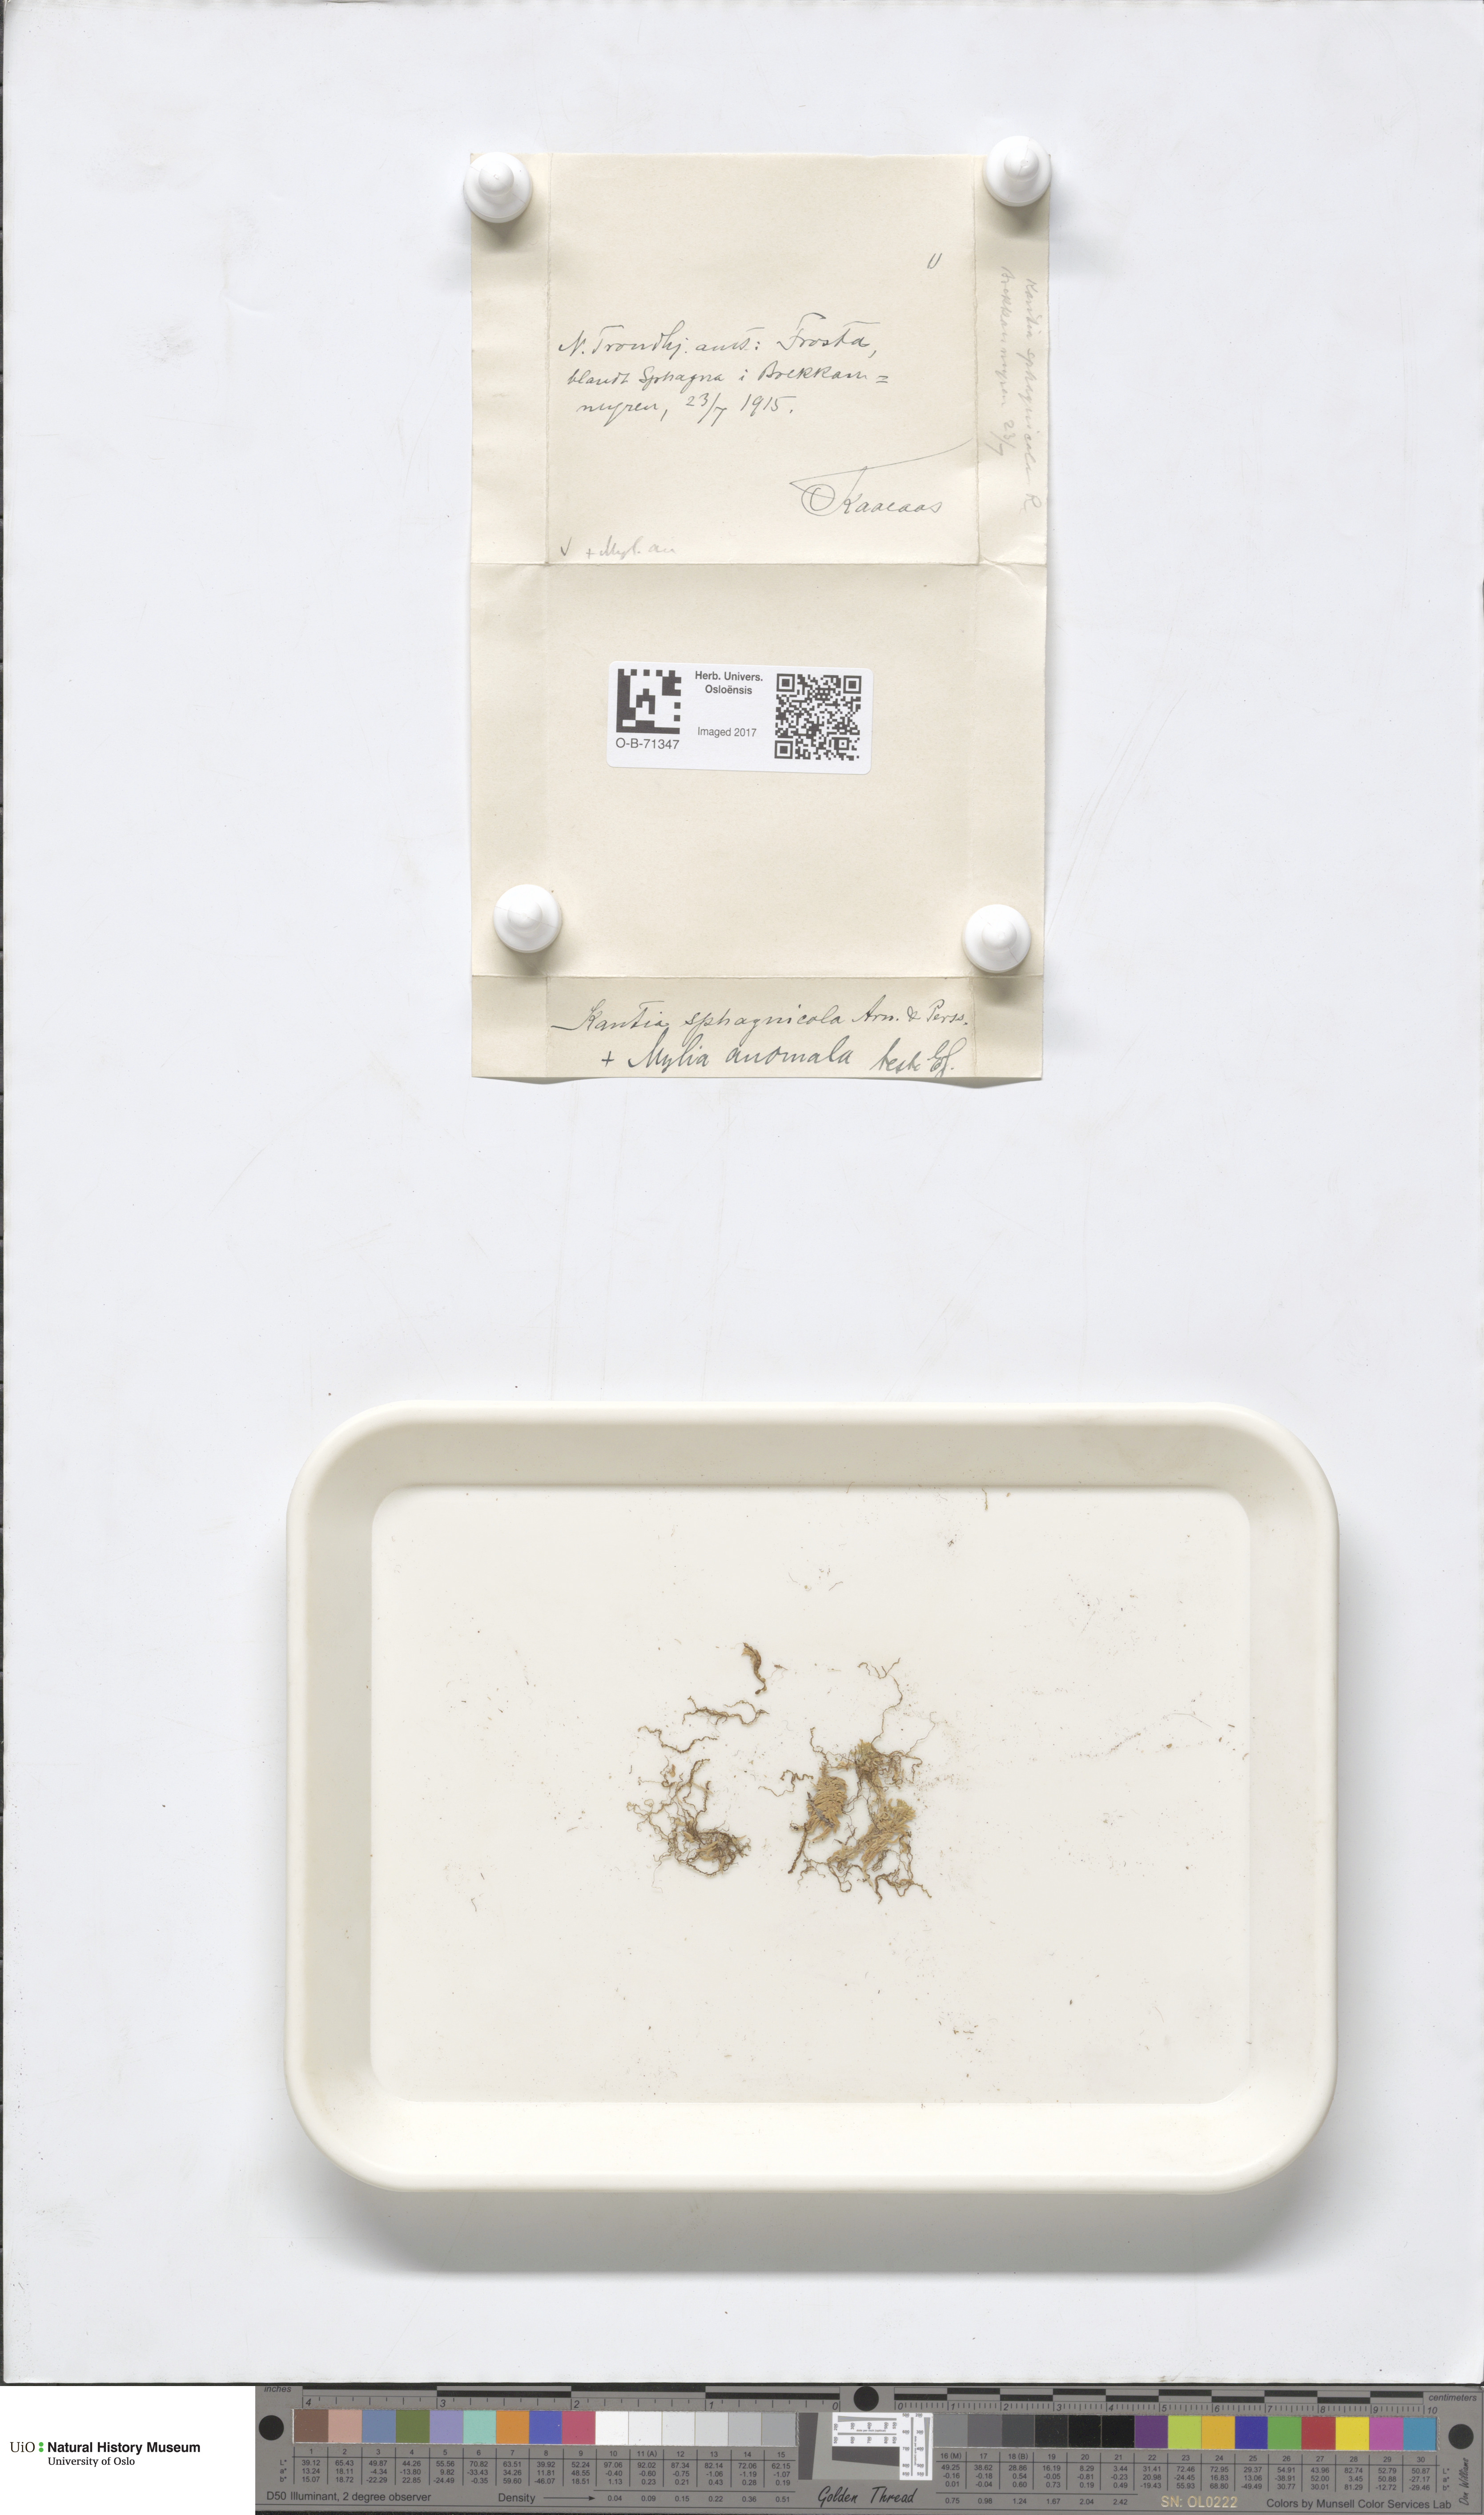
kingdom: Plantae
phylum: Marchantiophyta
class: Jungermanniopsida
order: Jungermanniales
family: Calypogeiaceae
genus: Calypogeia
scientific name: Calypogeia sphagnicola
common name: Bog pouchwort
